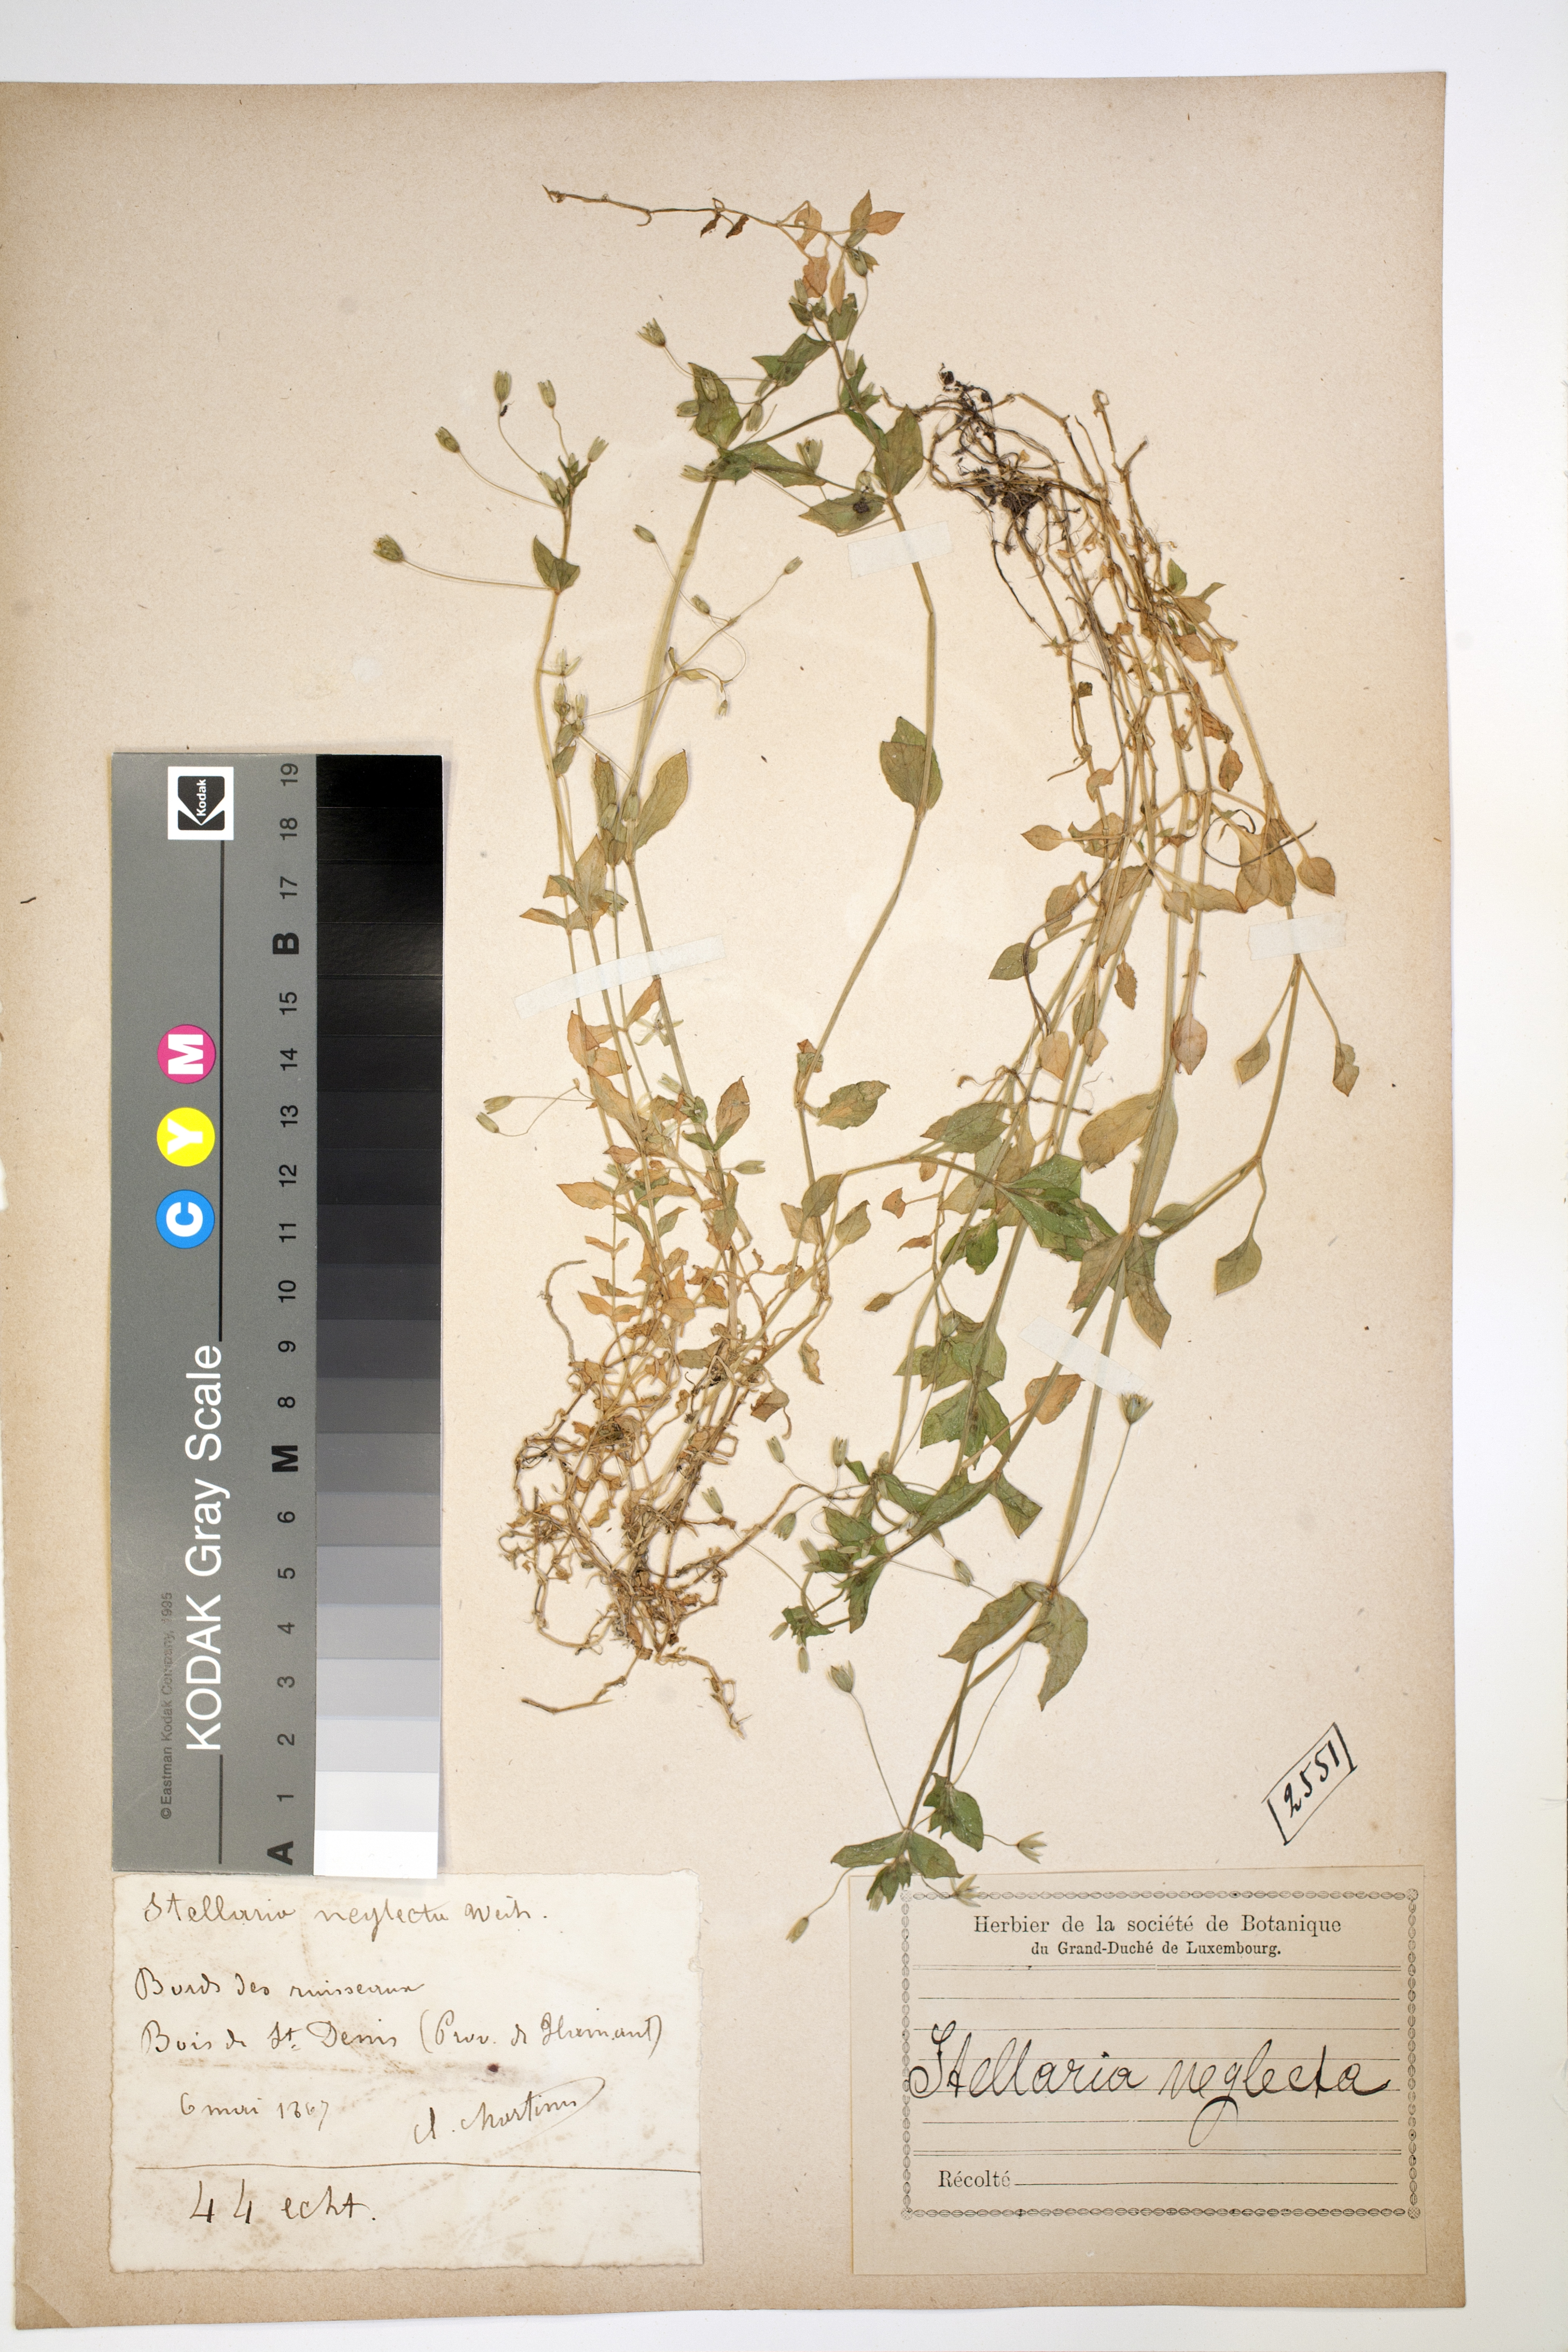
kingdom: Plantae
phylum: Tracheophyta
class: Magnoliopsida
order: Caryophyllales
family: Caryophyllaceae
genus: Stellaria
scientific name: Stellaria neglecta
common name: Greater chickweed
